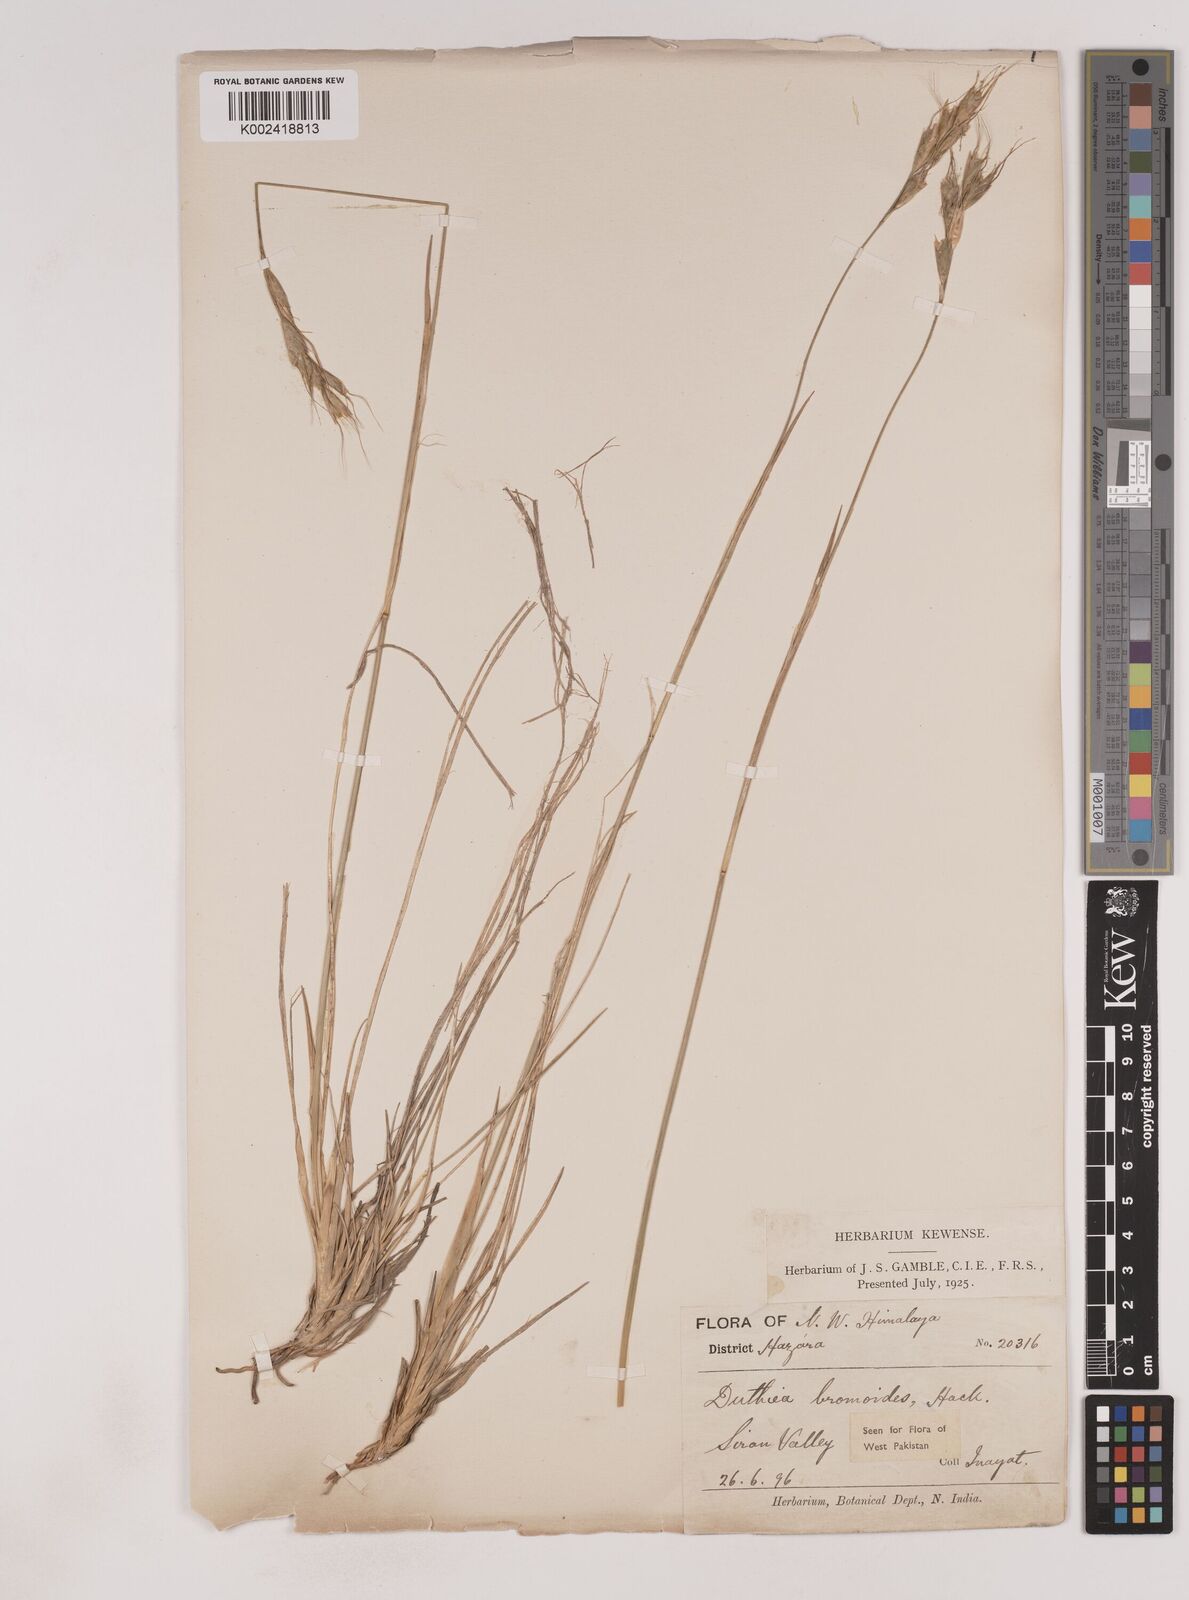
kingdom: Plantae
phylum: Tracheophyta
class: Liliopsida
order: Poales
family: Poaceae
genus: Duthiea
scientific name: Duthiea bromoides
